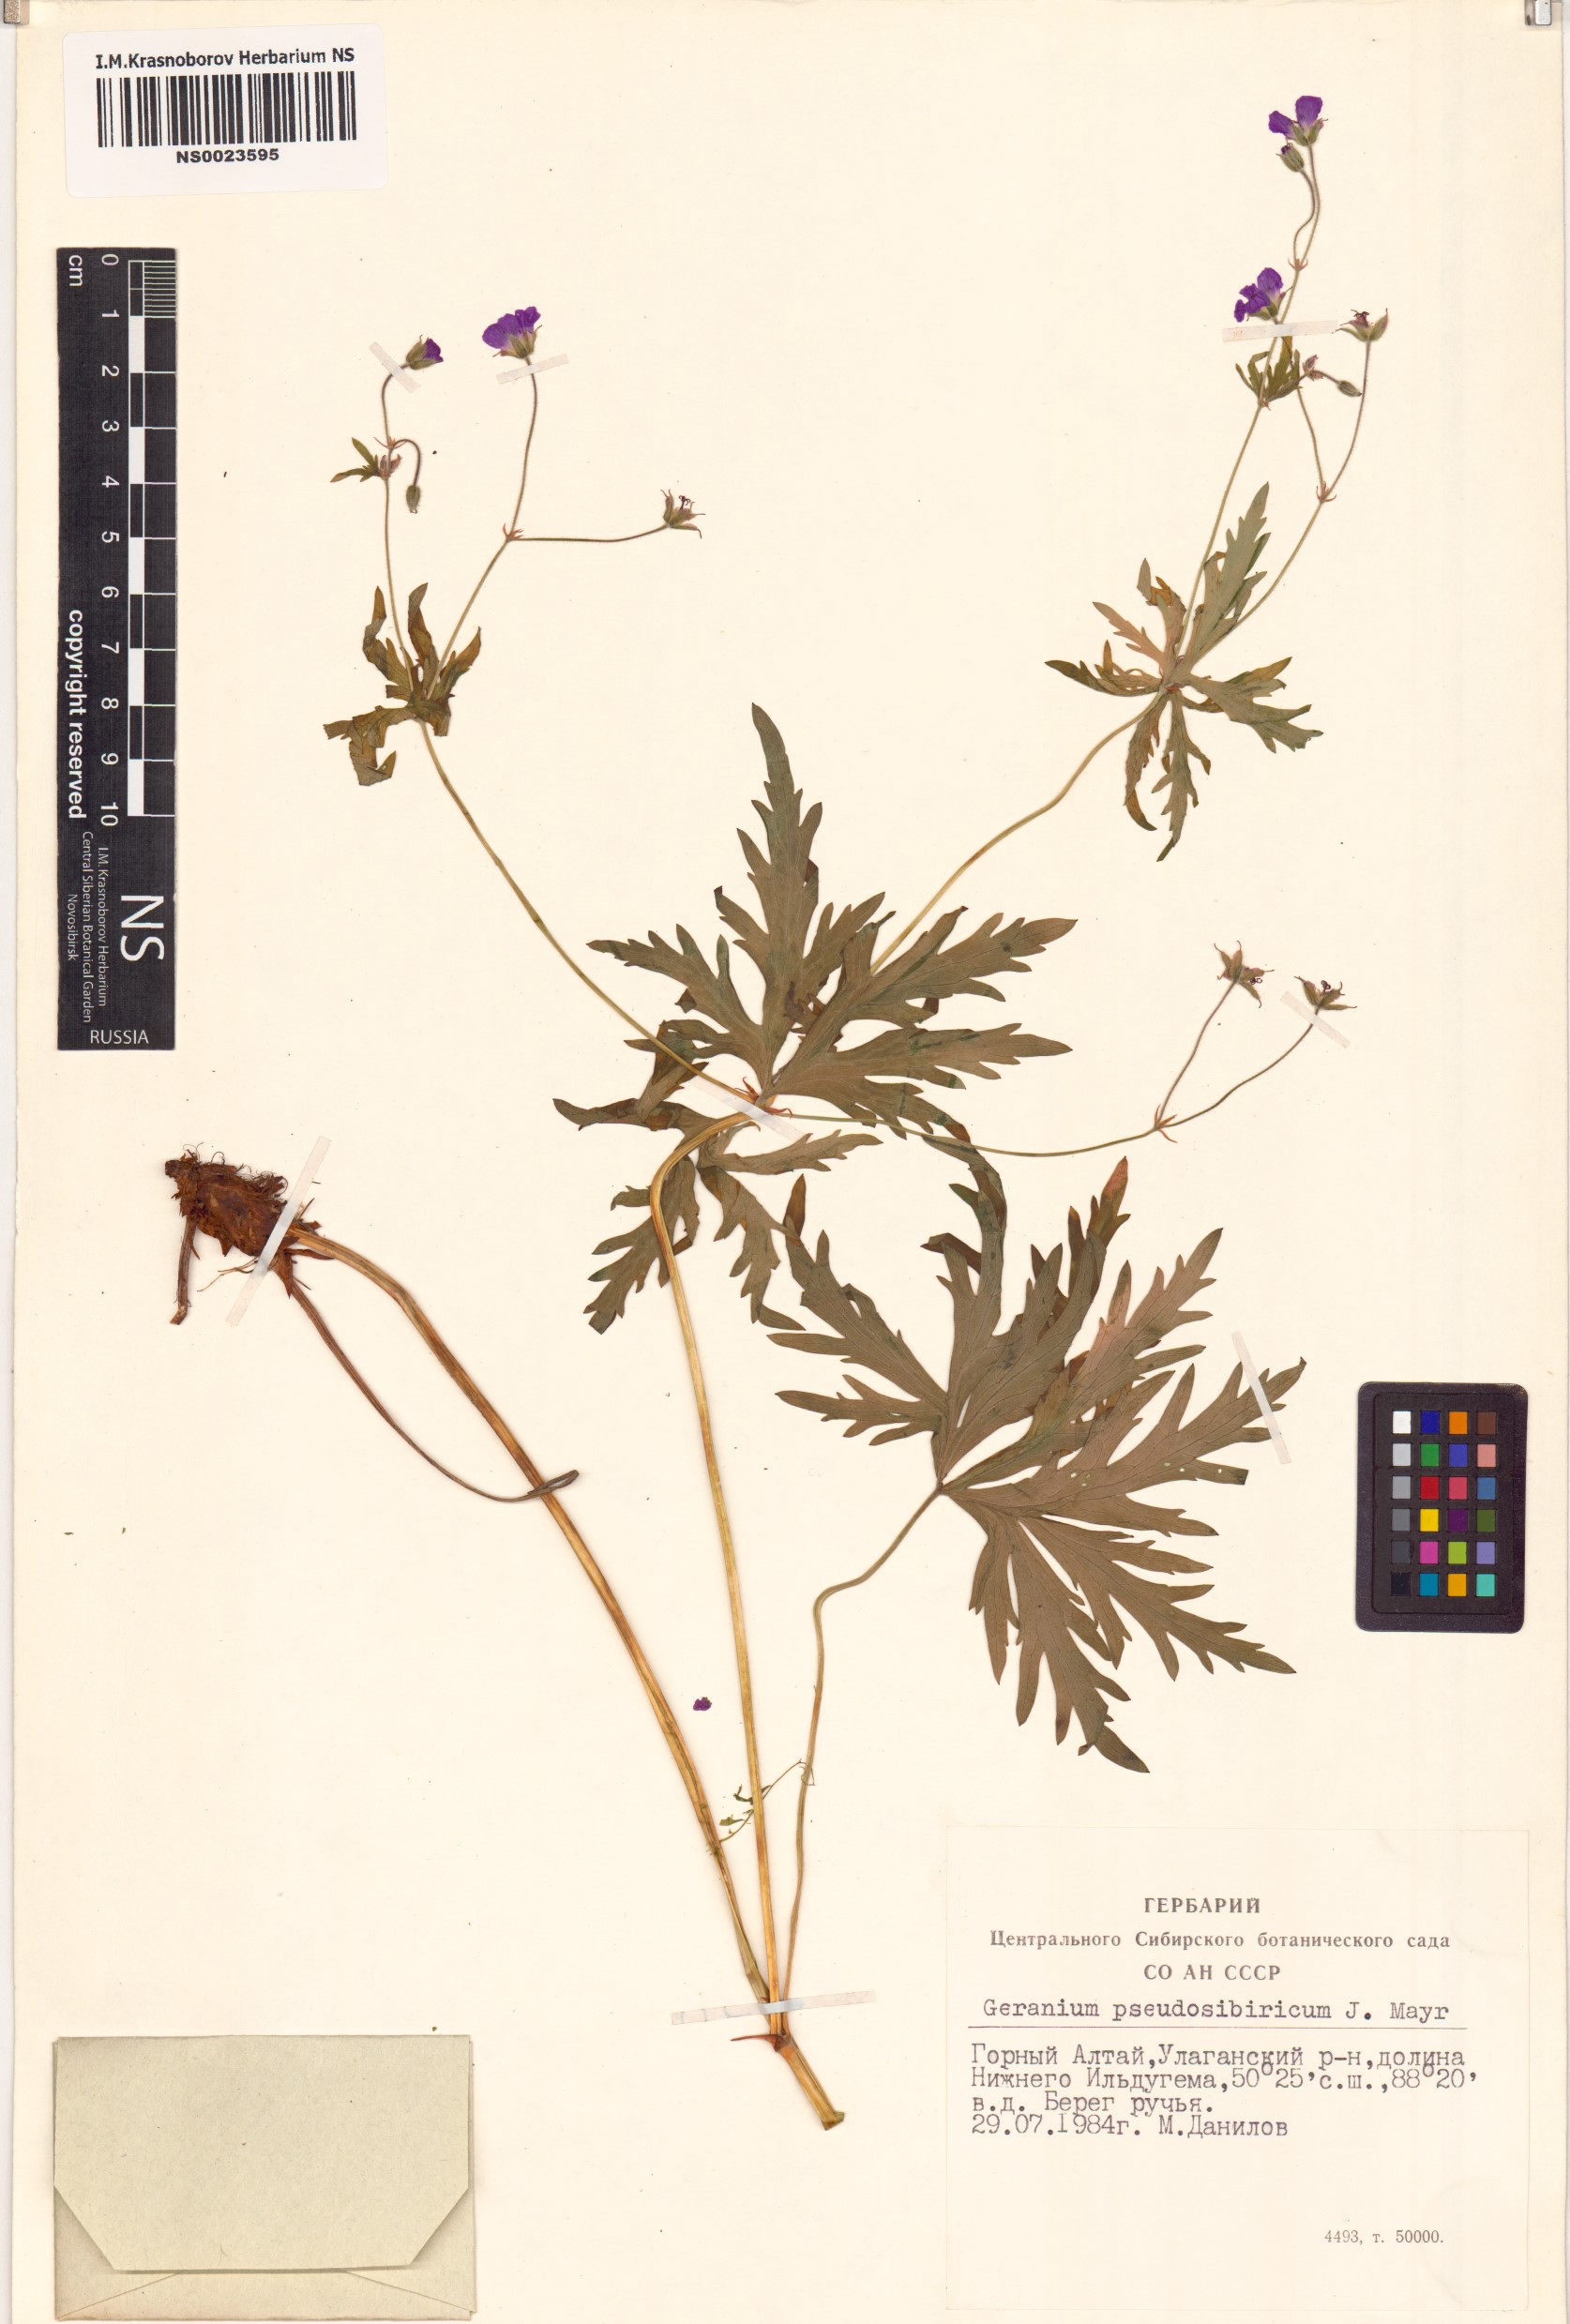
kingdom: Plantae
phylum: Tracheophyta
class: Magnoliopsida
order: Geraniales
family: Geraniaceae
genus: Geranium
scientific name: Geranium pseudosibiricum
